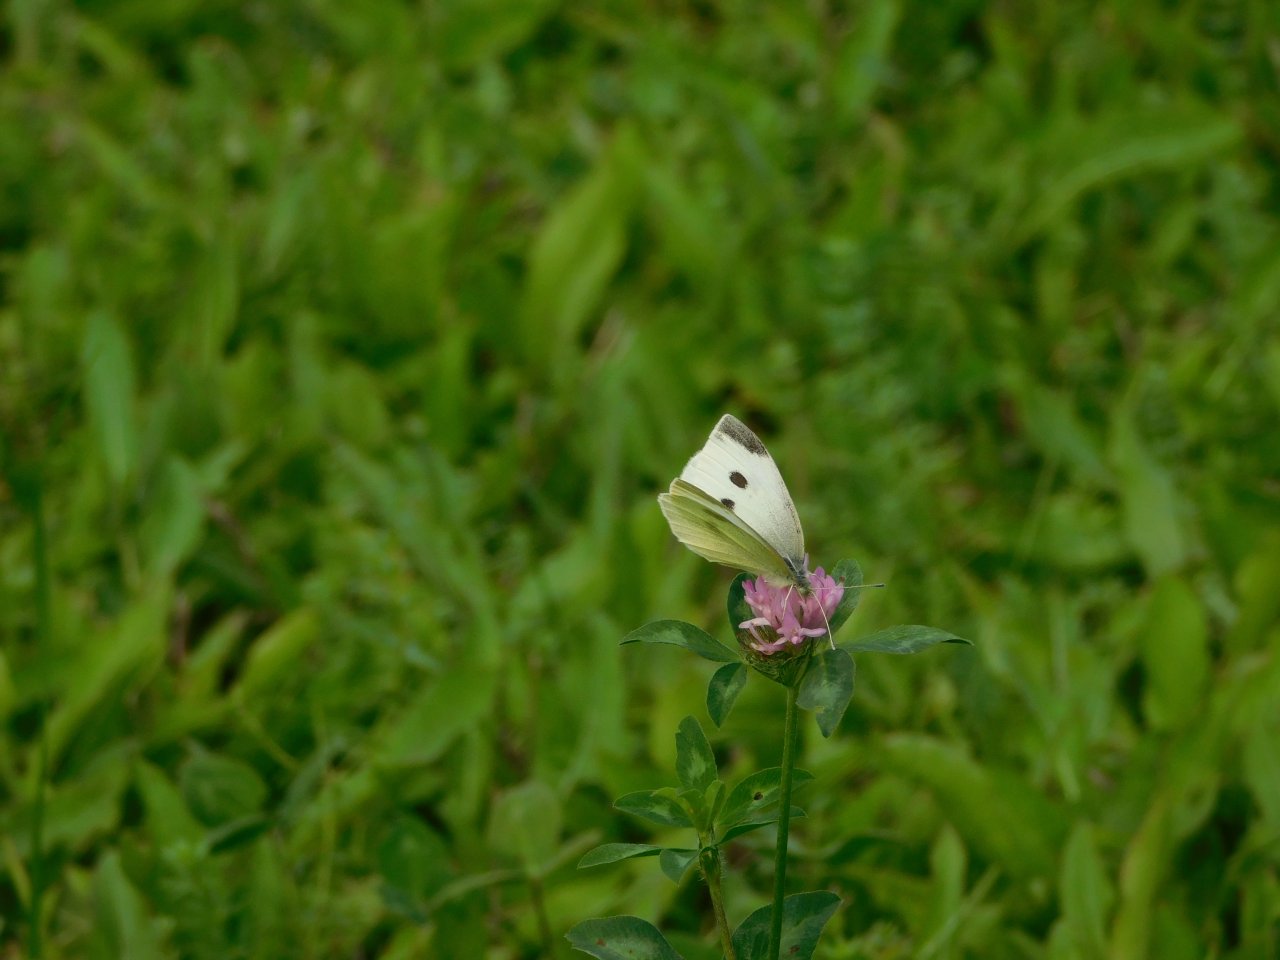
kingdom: Animalia
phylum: Arthropoda
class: Insecta
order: Lepidoptera
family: Pieridae
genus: Pieris
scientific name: Pieris rapae
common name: Cabbage White
